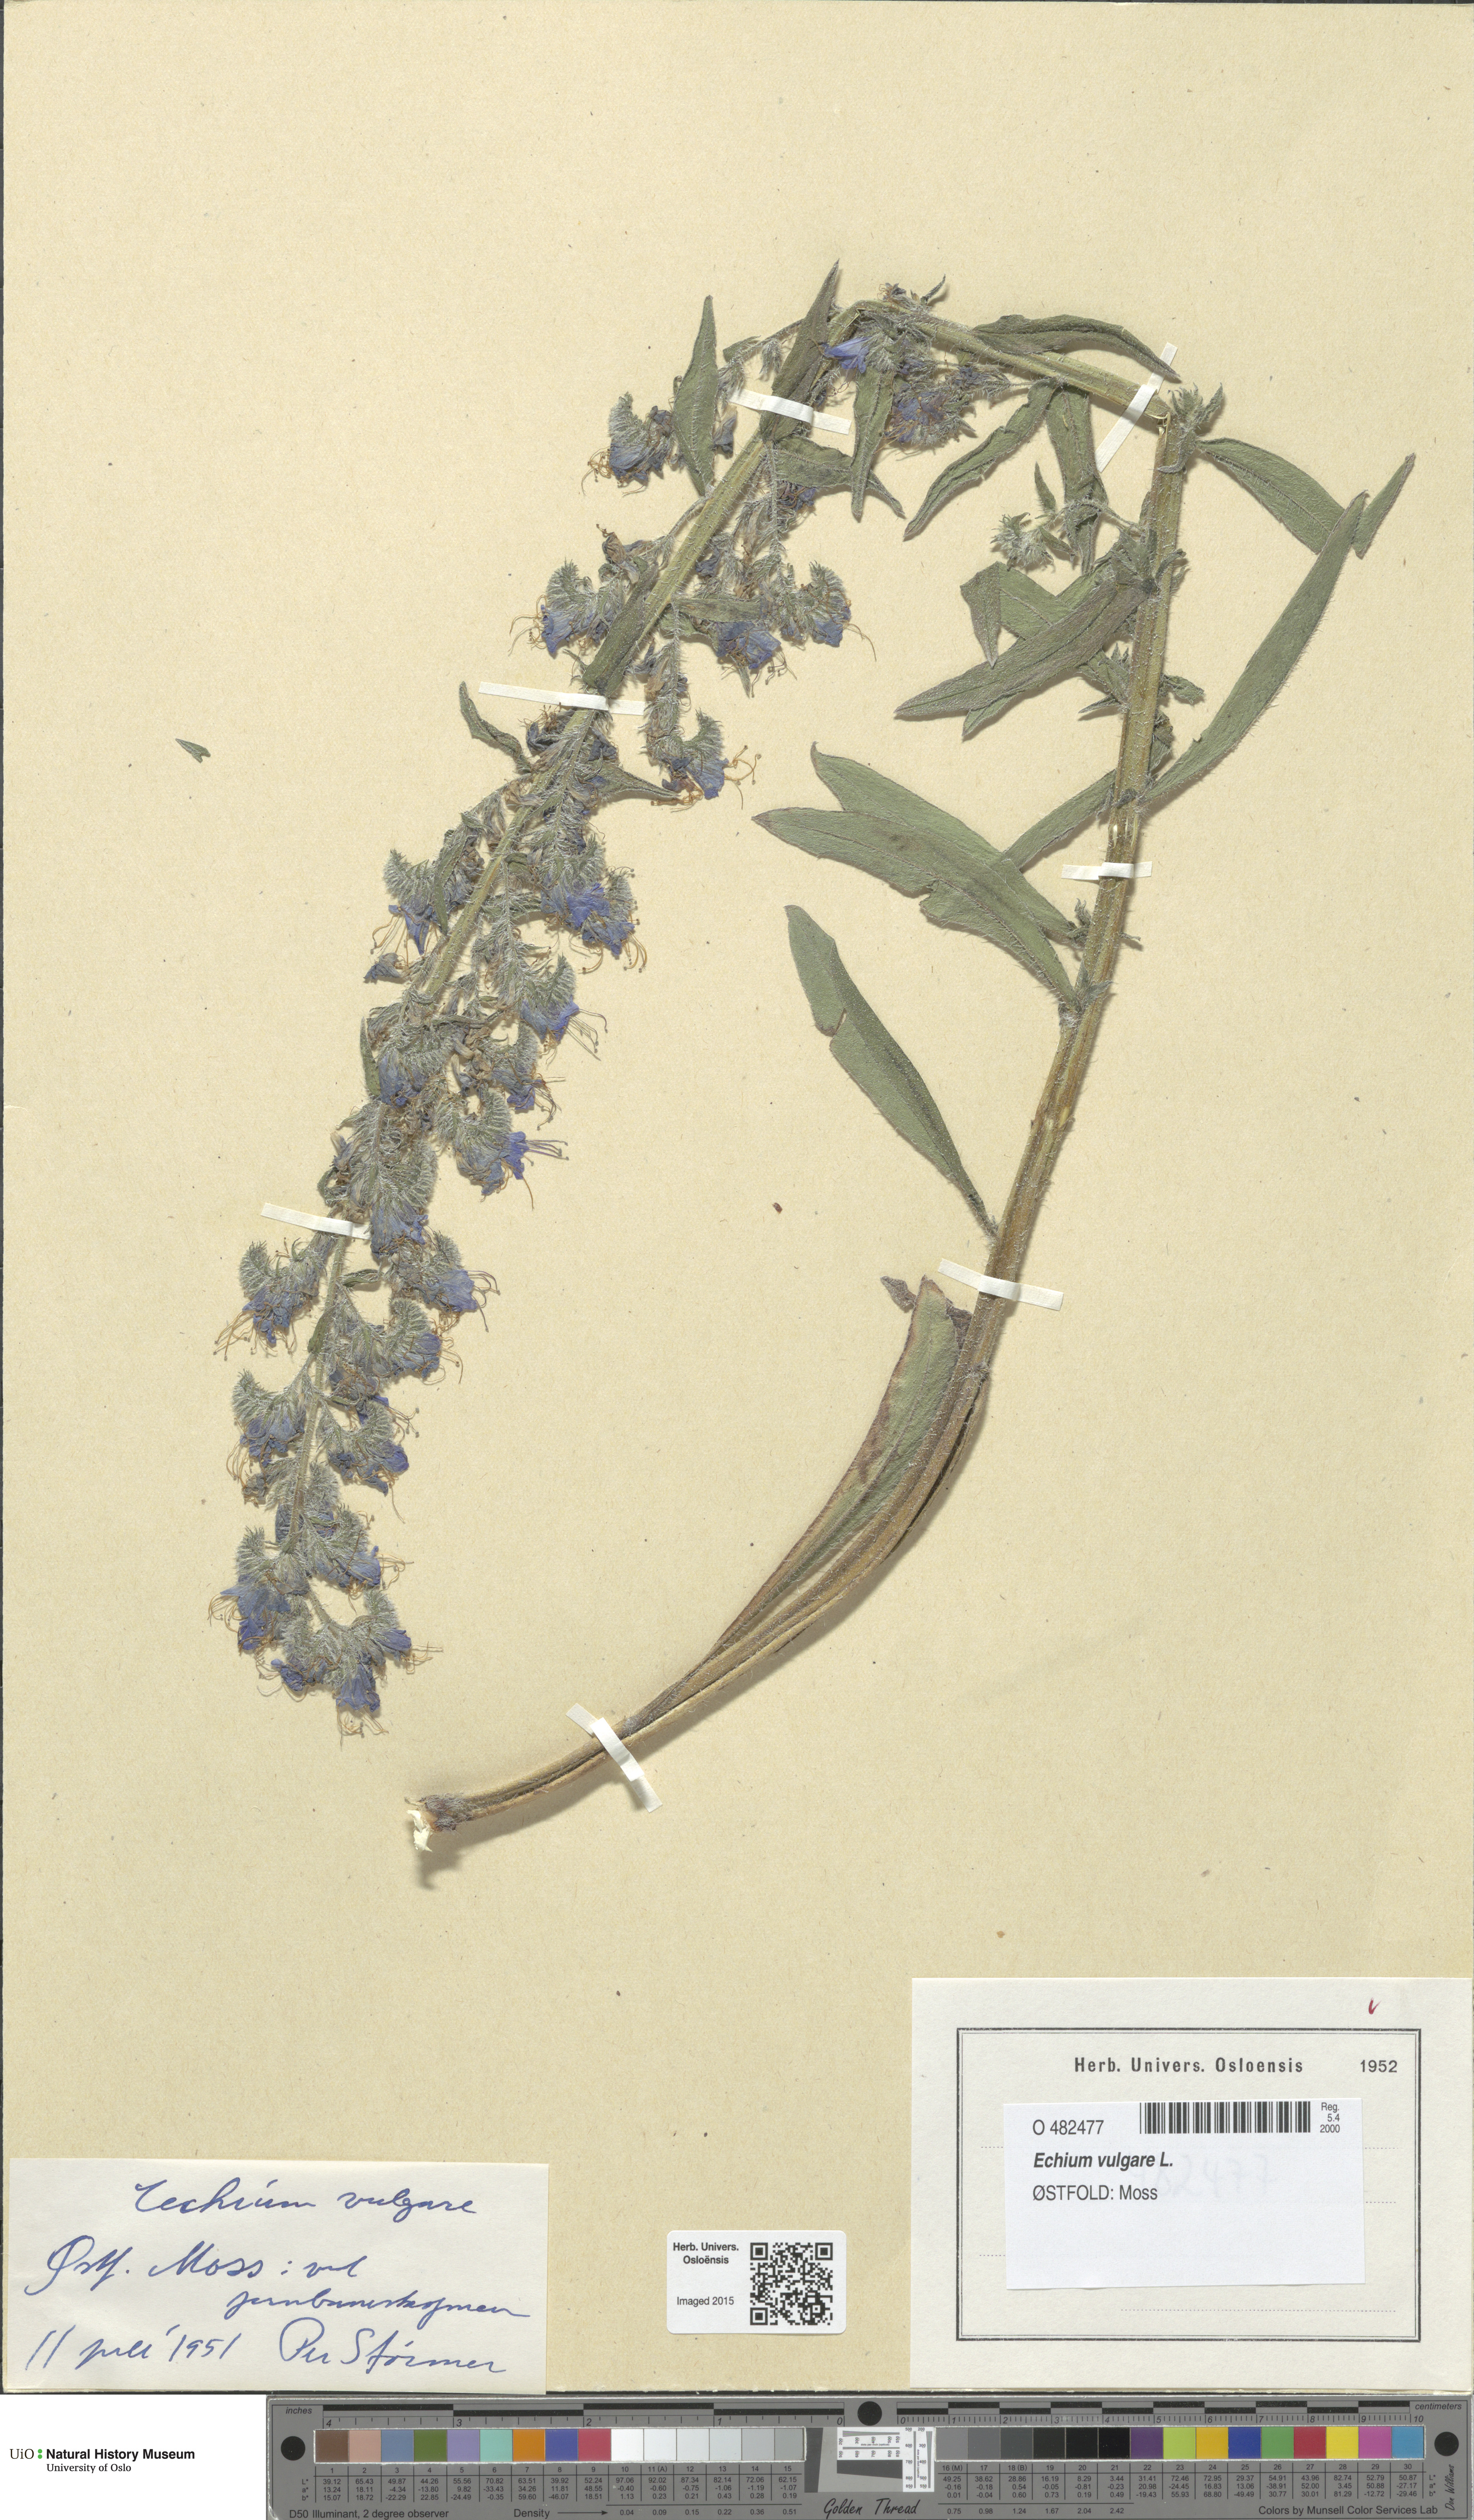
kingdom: Plantae
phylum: Tracheophyta
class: Magnoliopsida
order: Boraginales
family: Boraginaceae
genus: Echium
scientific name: Echium vulgare
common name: Common viper's bugloss
